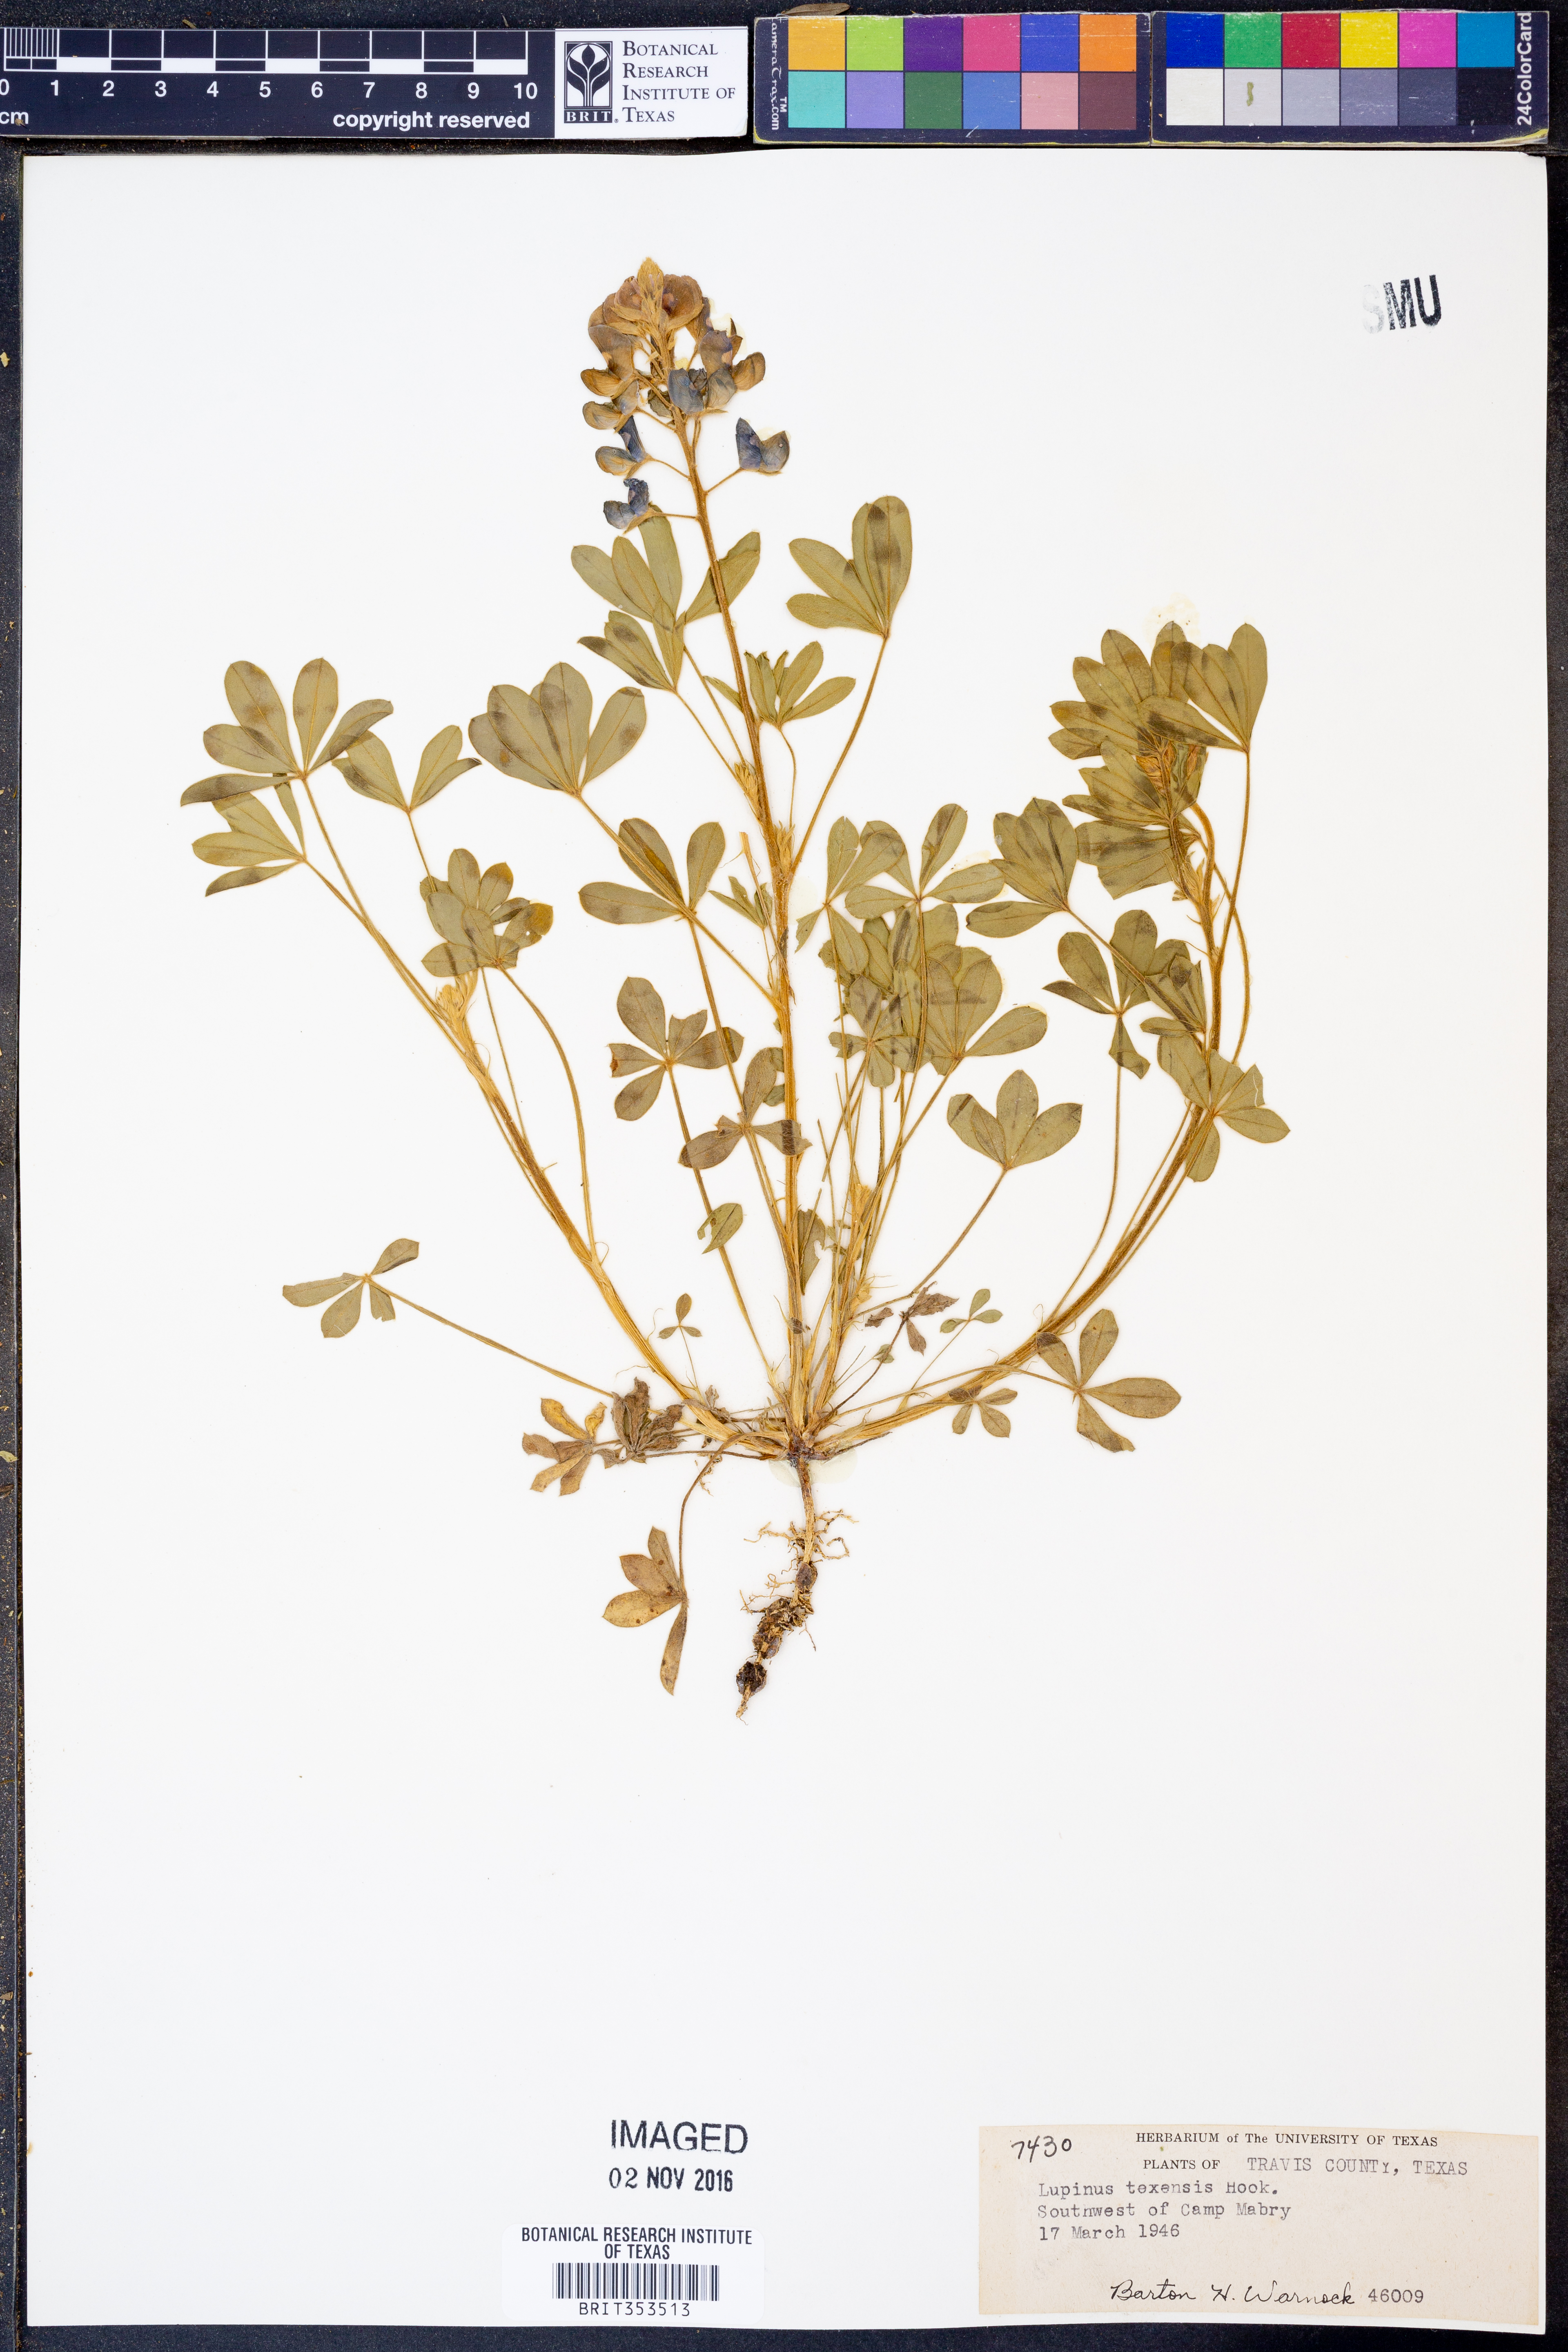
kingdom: Plantae
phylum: Tracheophyta
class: Magnoliopsida
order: Fabales
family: Fabaceae
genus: Lupinus
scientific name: Lupinus texensis
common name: Texas bluebonnet
